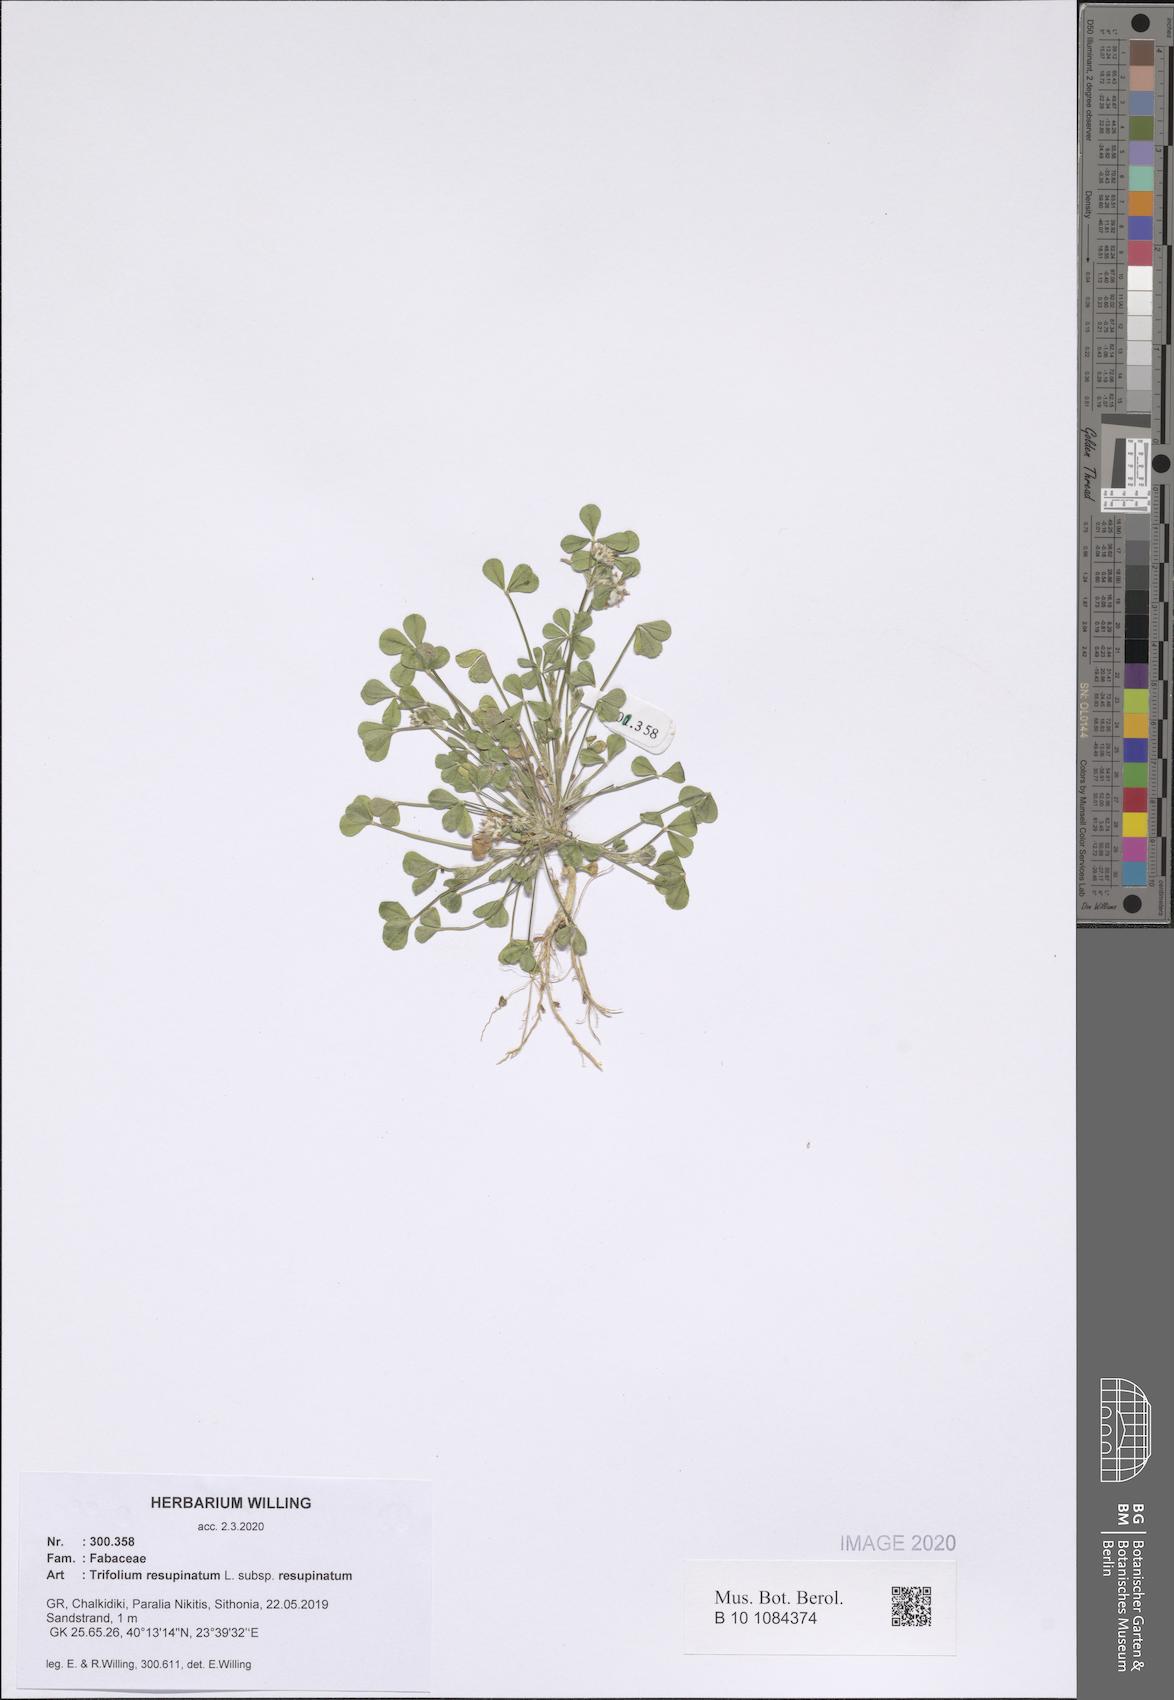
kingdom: Plantae
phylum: Tracheophyta
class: Magnoliopsida
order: Fabales
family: Fabaceae
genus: Trifolium
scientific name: Trifolium resupinatum
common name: Reversed clover
